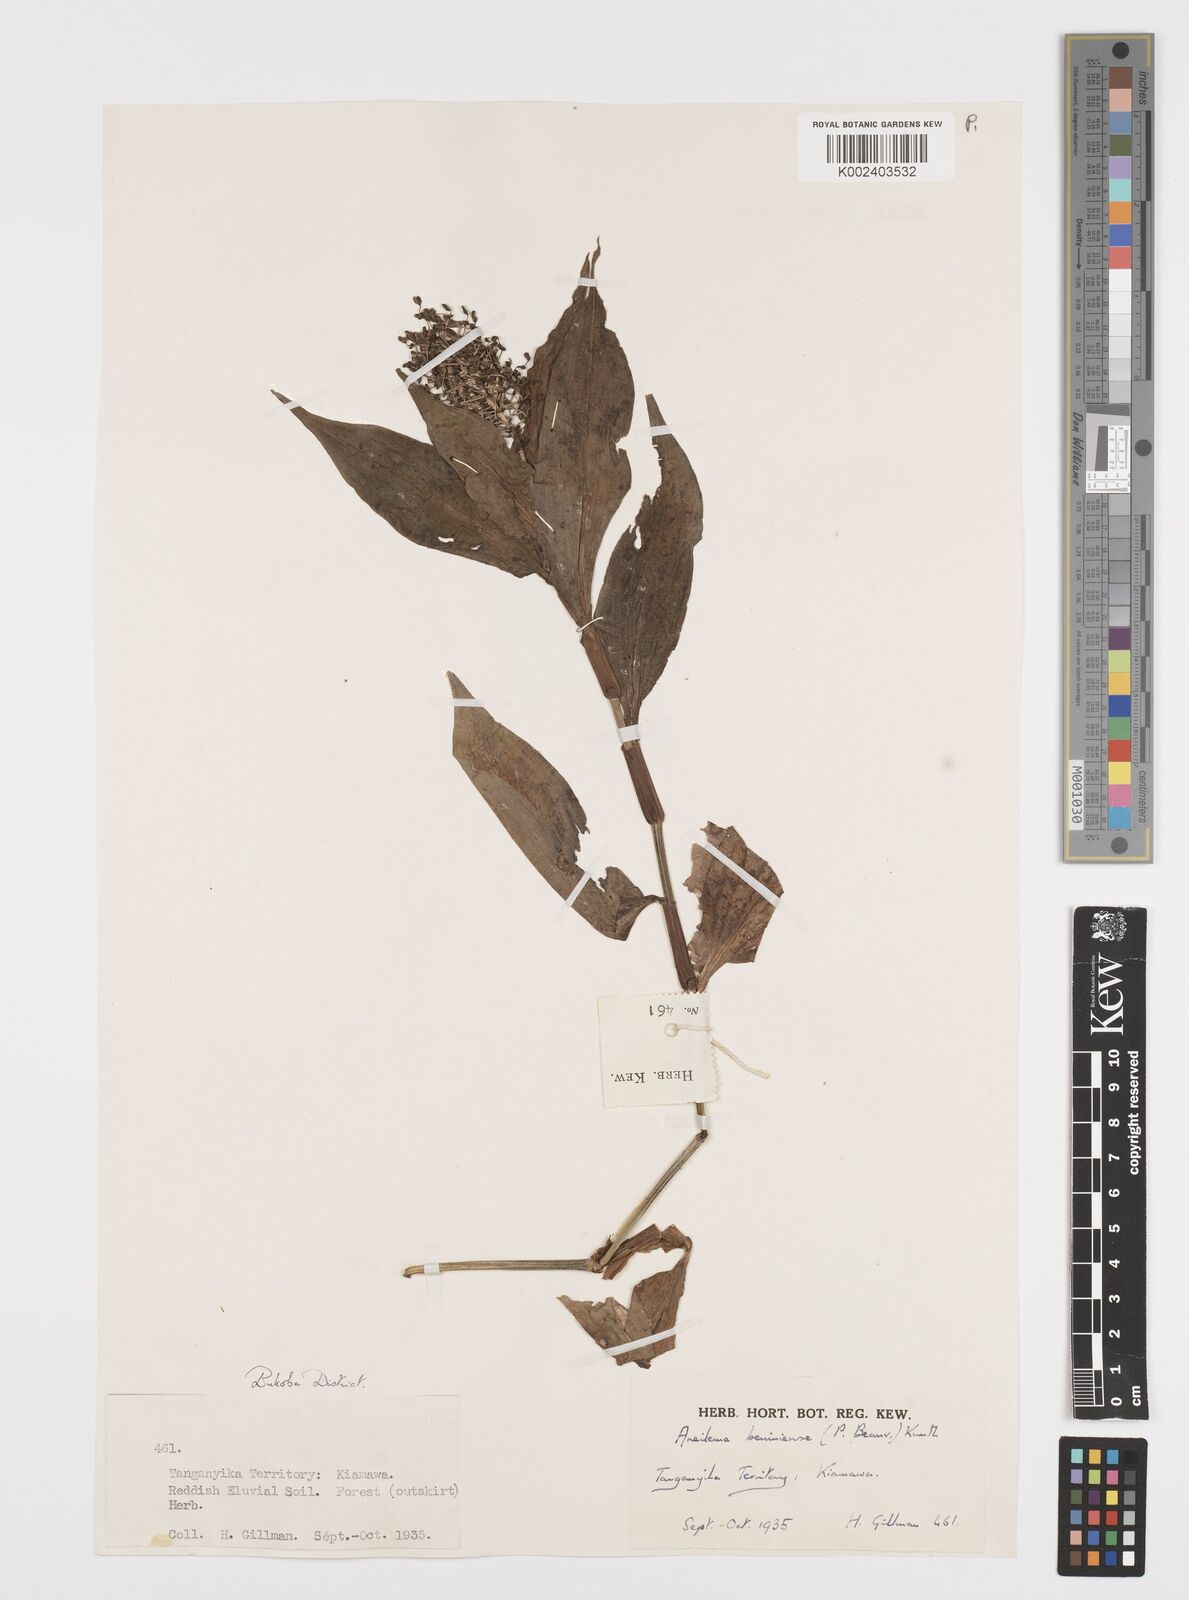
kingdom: Plantae
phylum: Tracheophyta
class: Liliopsida
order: Commelinales
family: Commelinaceae
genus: Aneilema
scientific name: Aneilema beniniense
